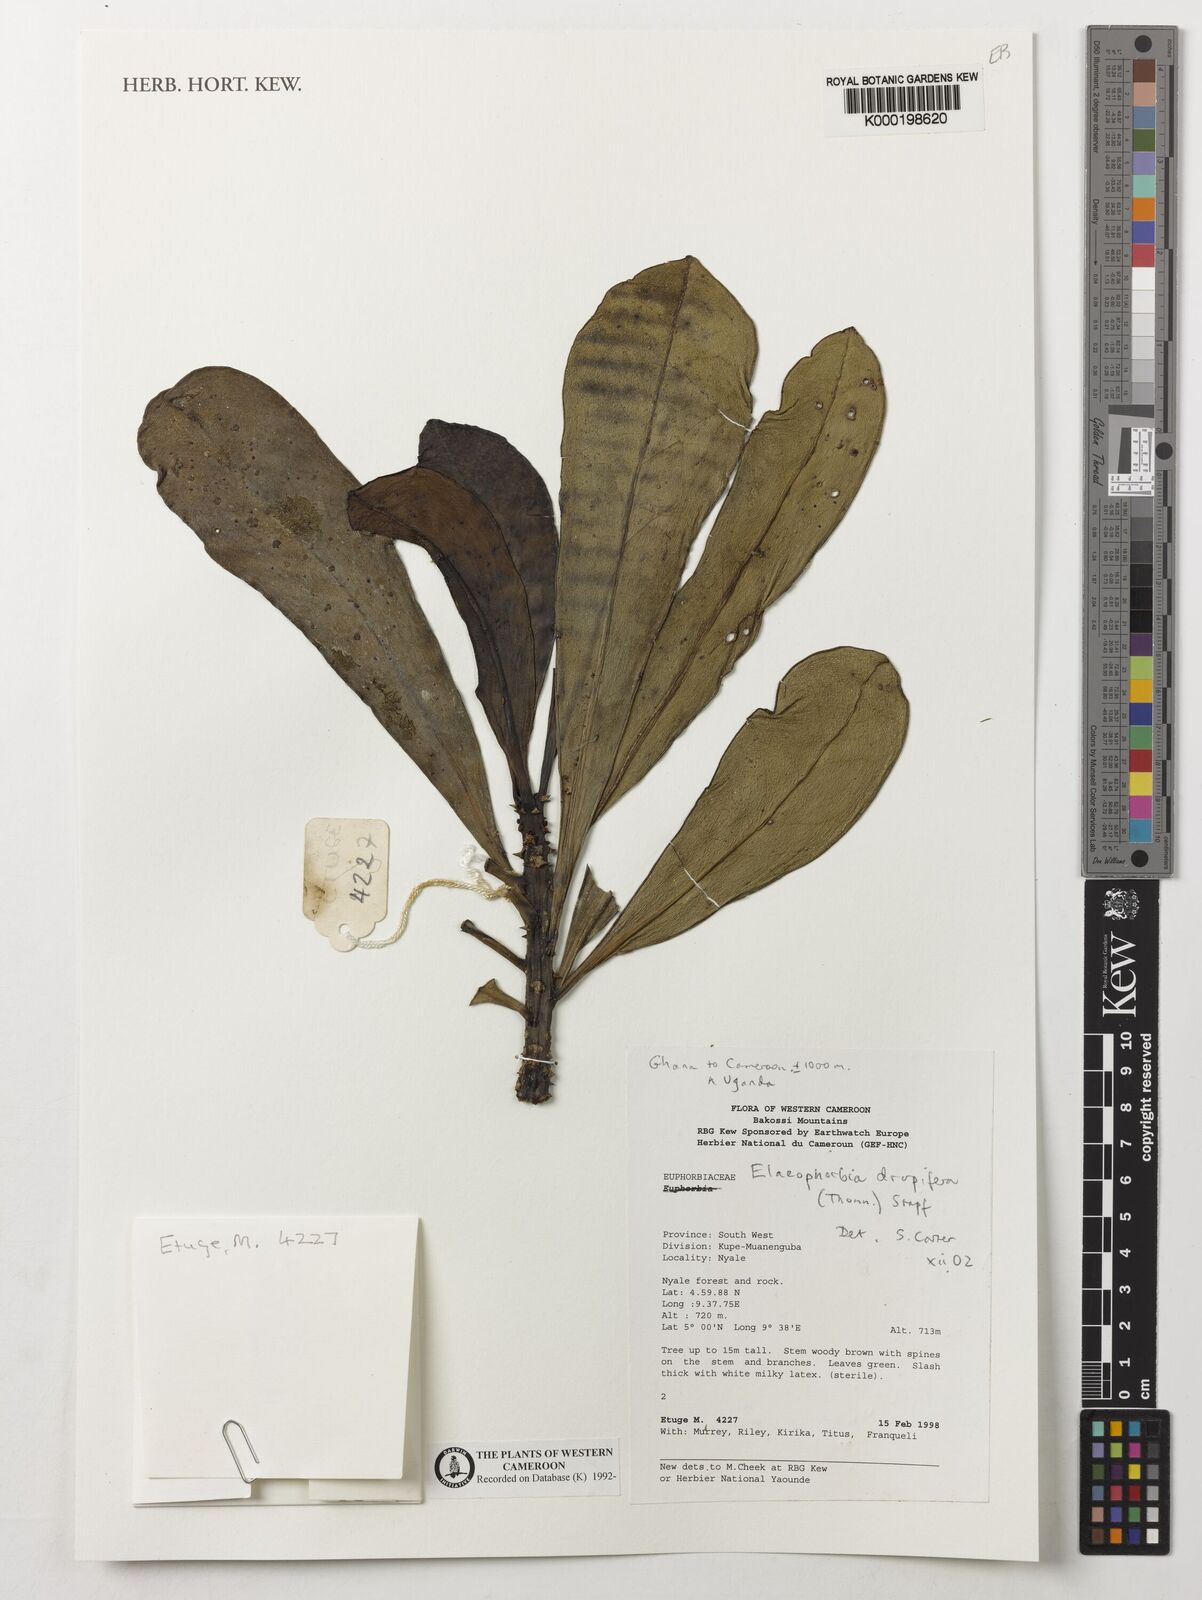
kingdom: Plantae
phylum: Tracheophyta
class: Magnoliopsida
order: Malpighiales
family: Euphorbiaceae
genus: Euphorbia
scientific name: Euphorbia drupifera
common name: Dodo
